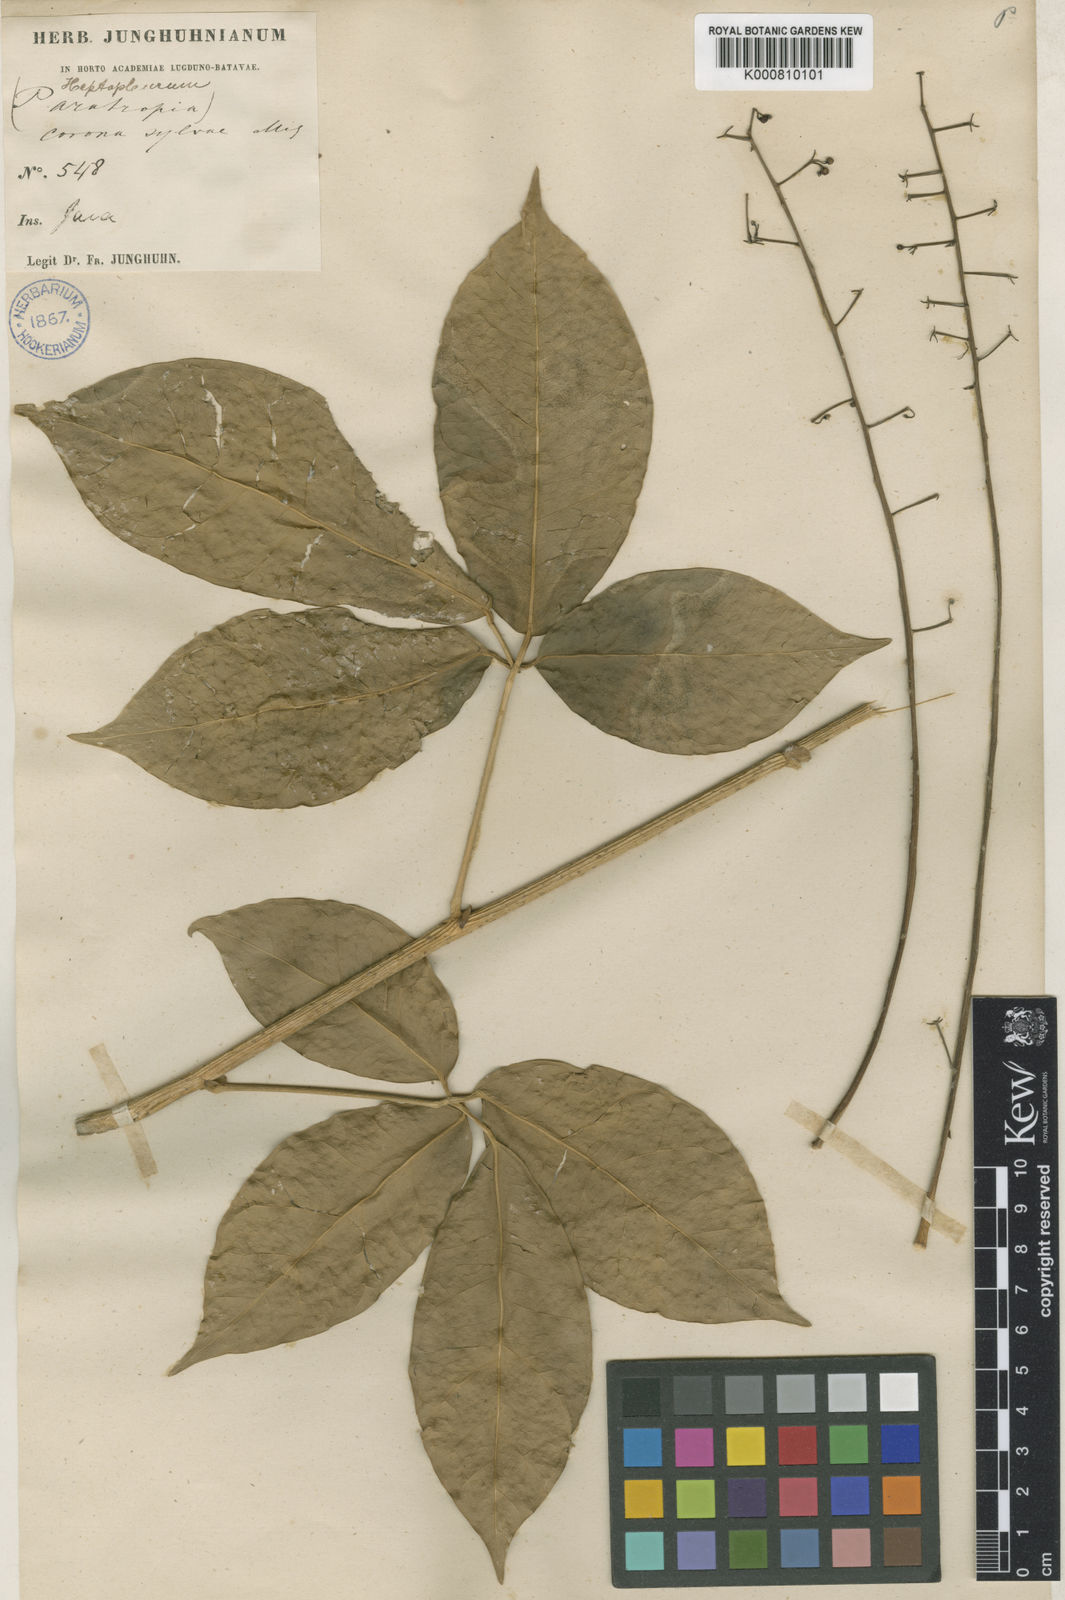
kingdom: Plantae
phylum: Tracheophyta
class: Magnoliopsida
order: Apiales
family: Araliaceae
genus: Heptapleurum
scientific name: Heptapleurum subavene
